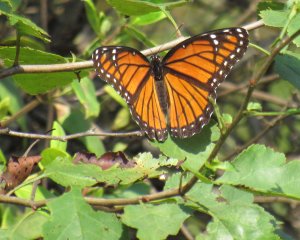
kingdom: Animalia
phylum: Arthropoda
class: Insecta
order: Lepidoptera
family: Nymphalidae
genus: Limenitis
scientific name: Limenitis archippus
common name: Viceroy
